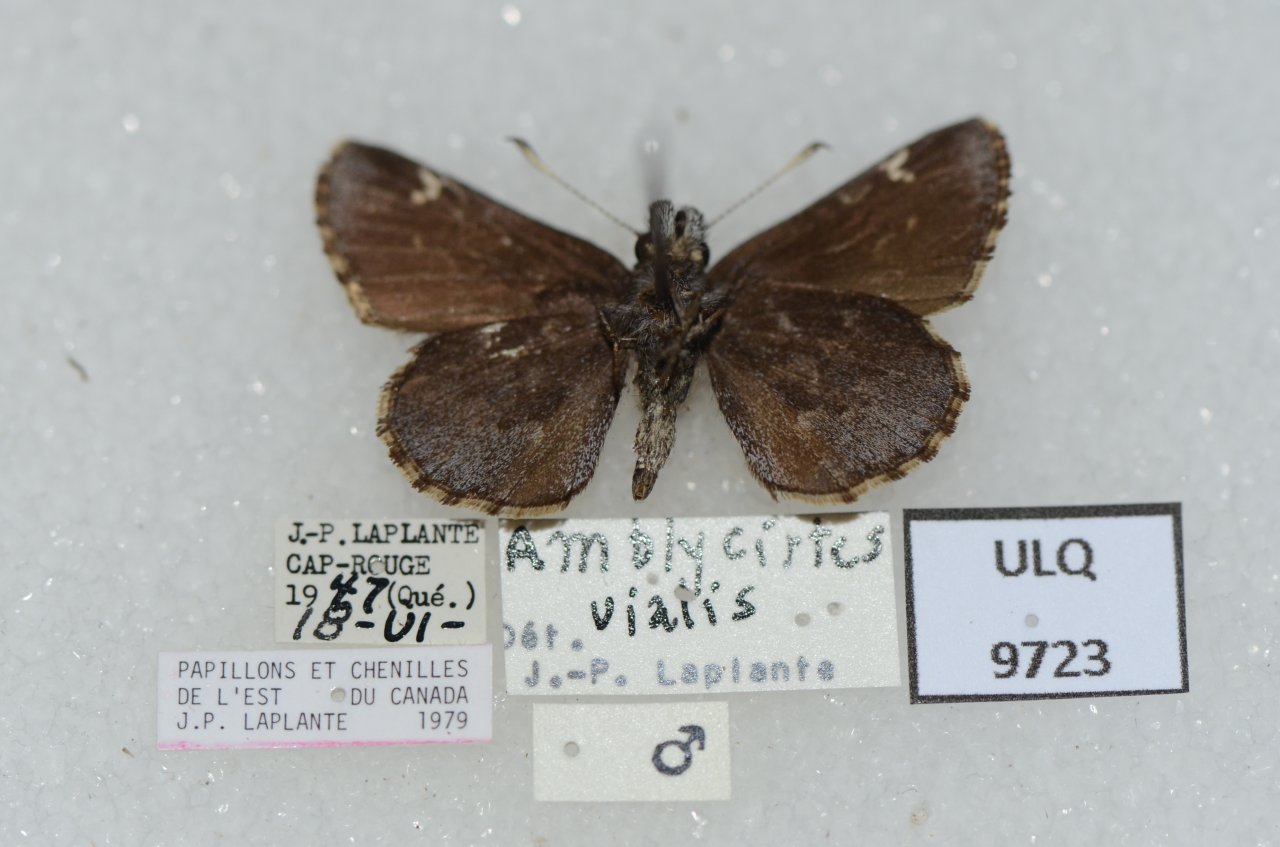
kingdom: Animalia
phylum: Arthropoda
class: Insecta
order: Lepidoptera
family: Hesperiidae
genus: Mastor
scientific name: Mastor vialis
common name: Common Roadside-Skipper
